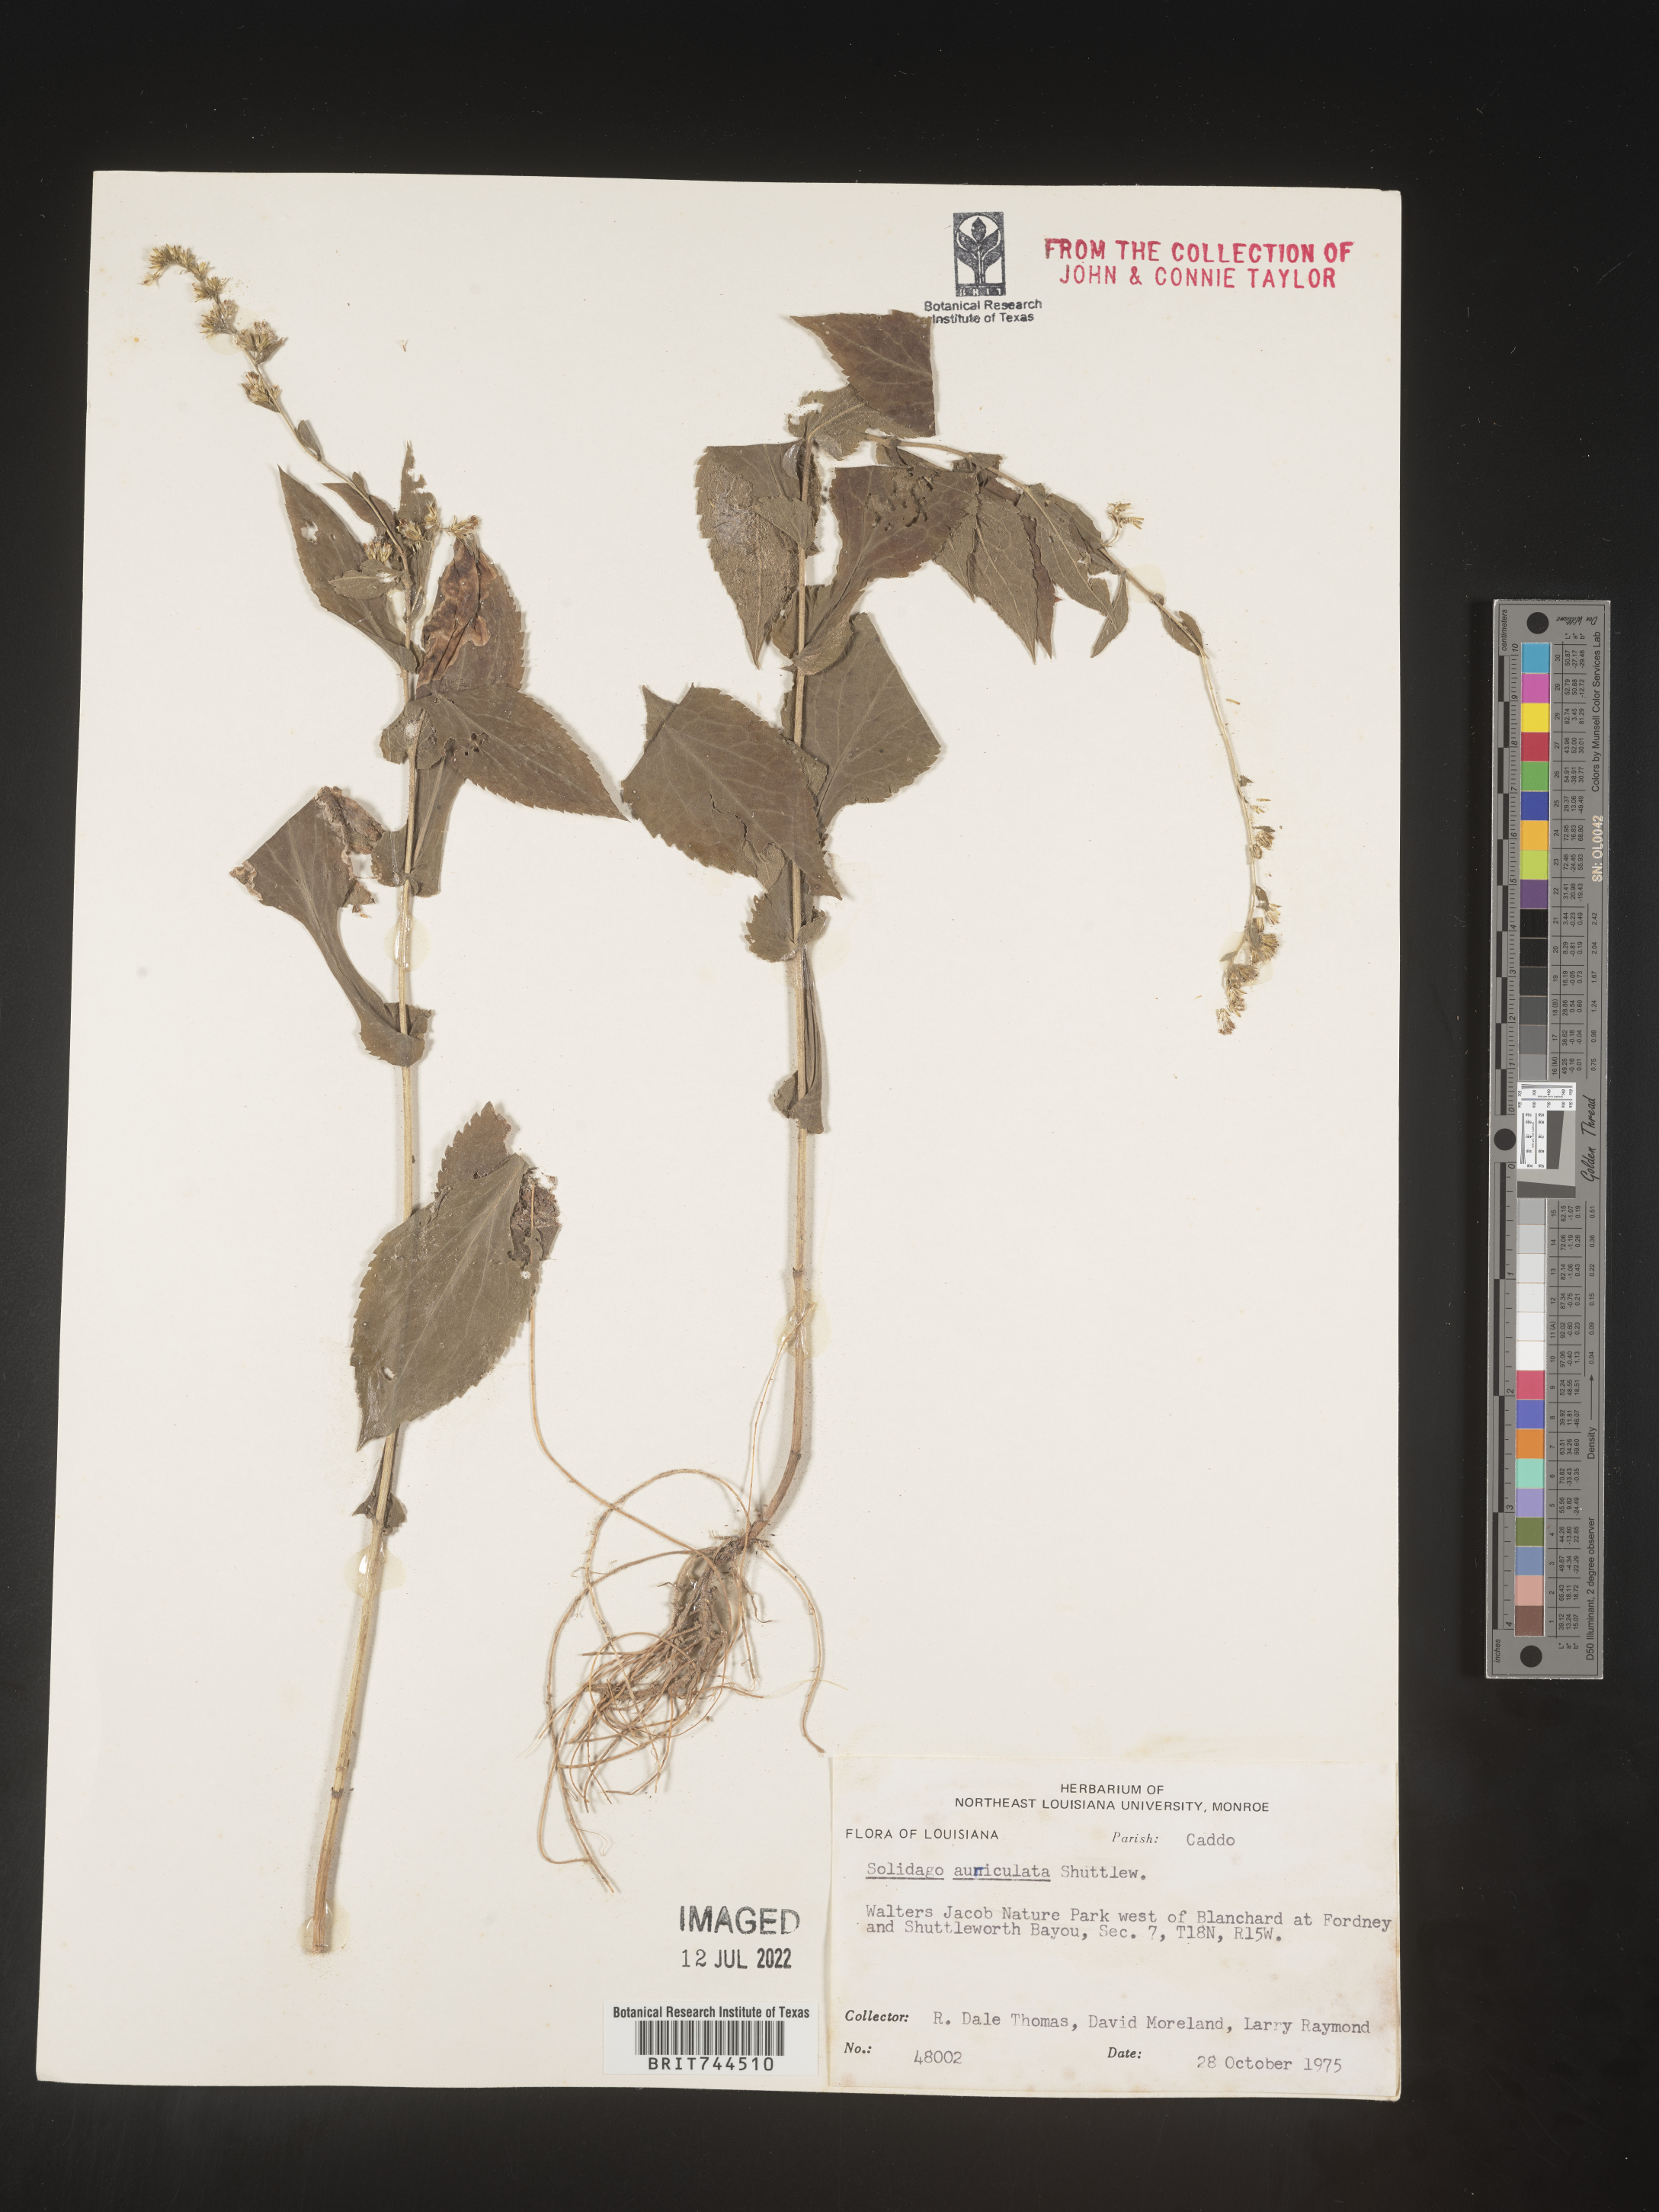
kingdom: Plantae
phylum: Tracheophyta
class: Magnoliopsida
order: Asterales
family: Asteraceae
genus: Solidago
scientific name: Solidago auriculata
